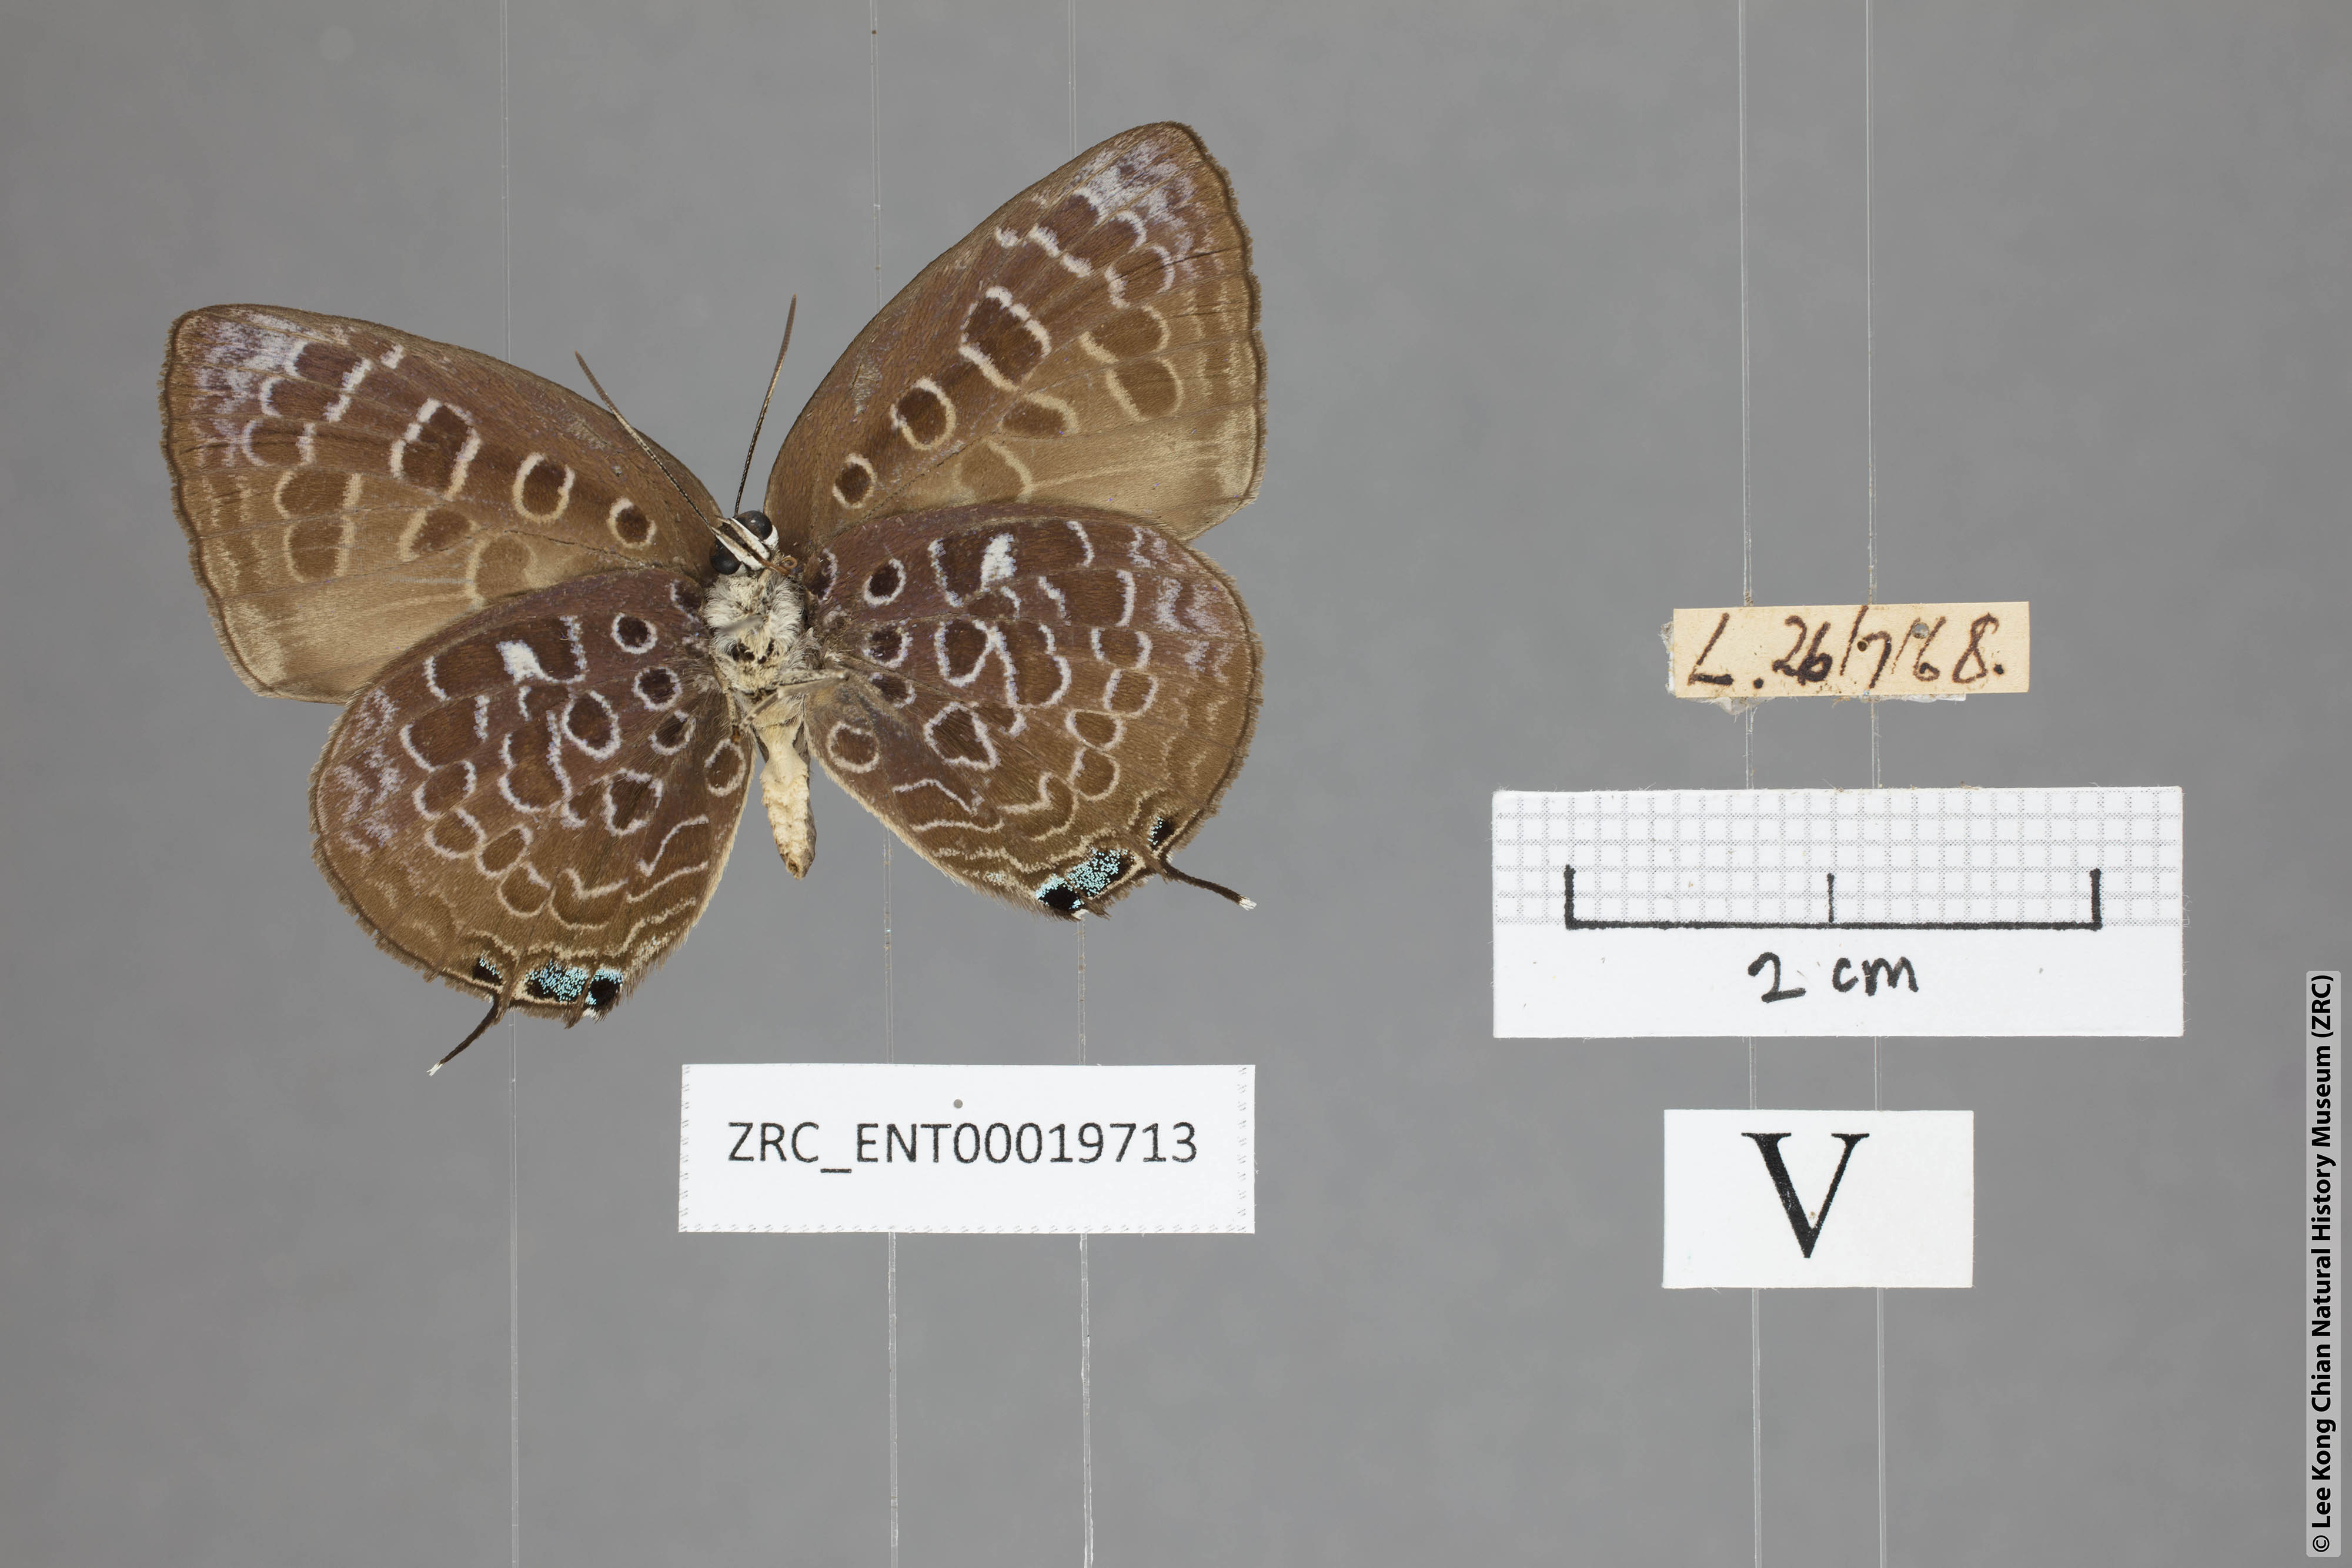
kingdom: Animalia
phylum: Arthropoda
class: Insecta
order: Lepidoptera
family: Lycaenidae
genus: Arhopala
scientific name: Arhopala myrzala
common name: Malayan oakblue
